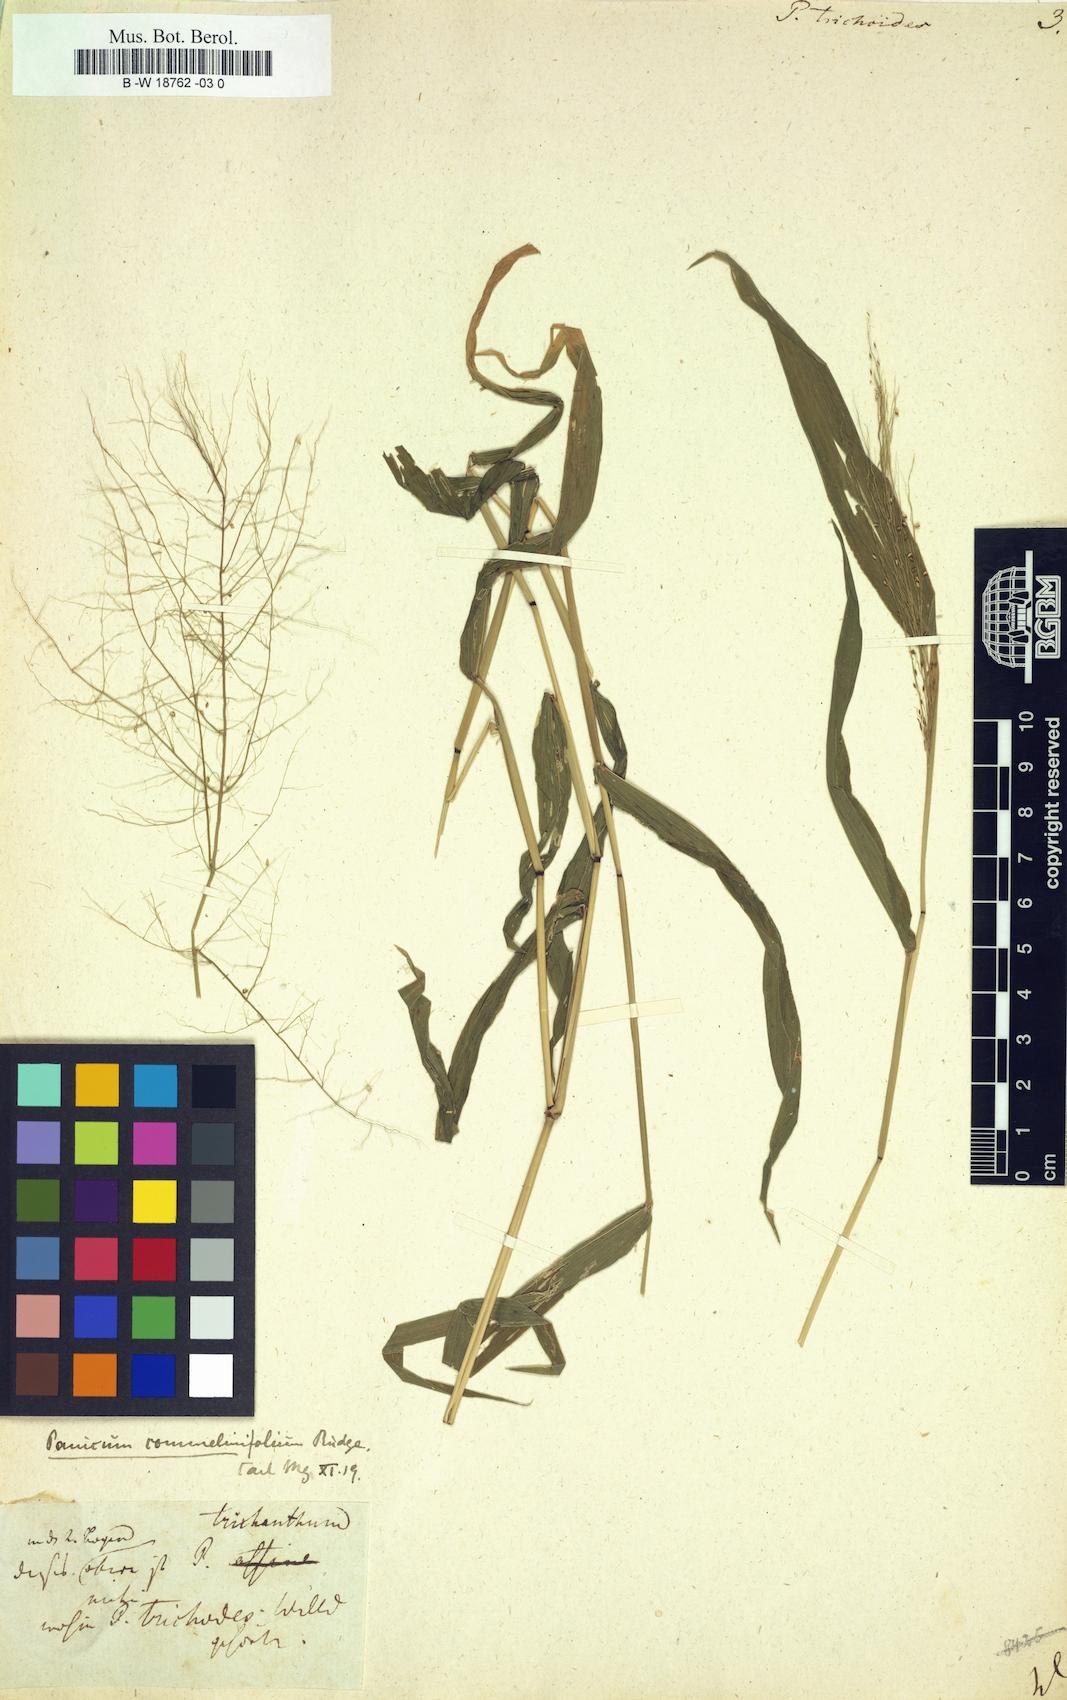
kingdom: Plantae
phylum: Tracheophyta
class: Liliopsida
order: Poales
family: Poaceae
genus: Panicum
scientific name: Panicum trichoides
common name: Tickle grass
